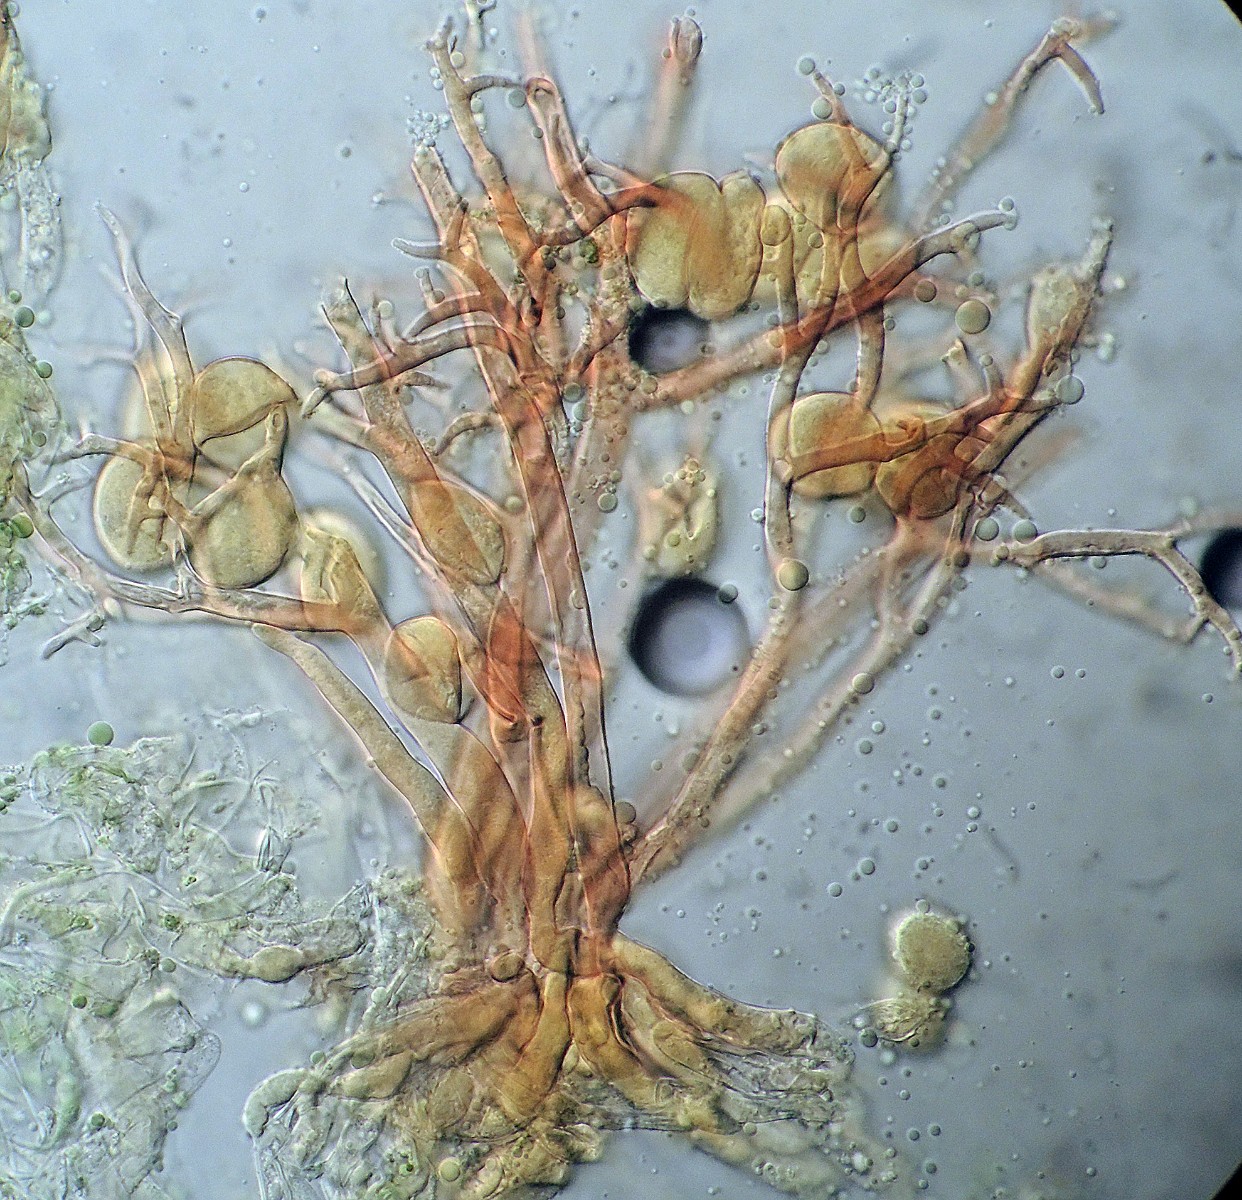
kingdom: Chromista
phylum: Oomycota
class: Peronosporea
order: Peronosporales
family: Peronosporaceae
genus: Peronospora
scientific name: Peronospora bulbocapni
